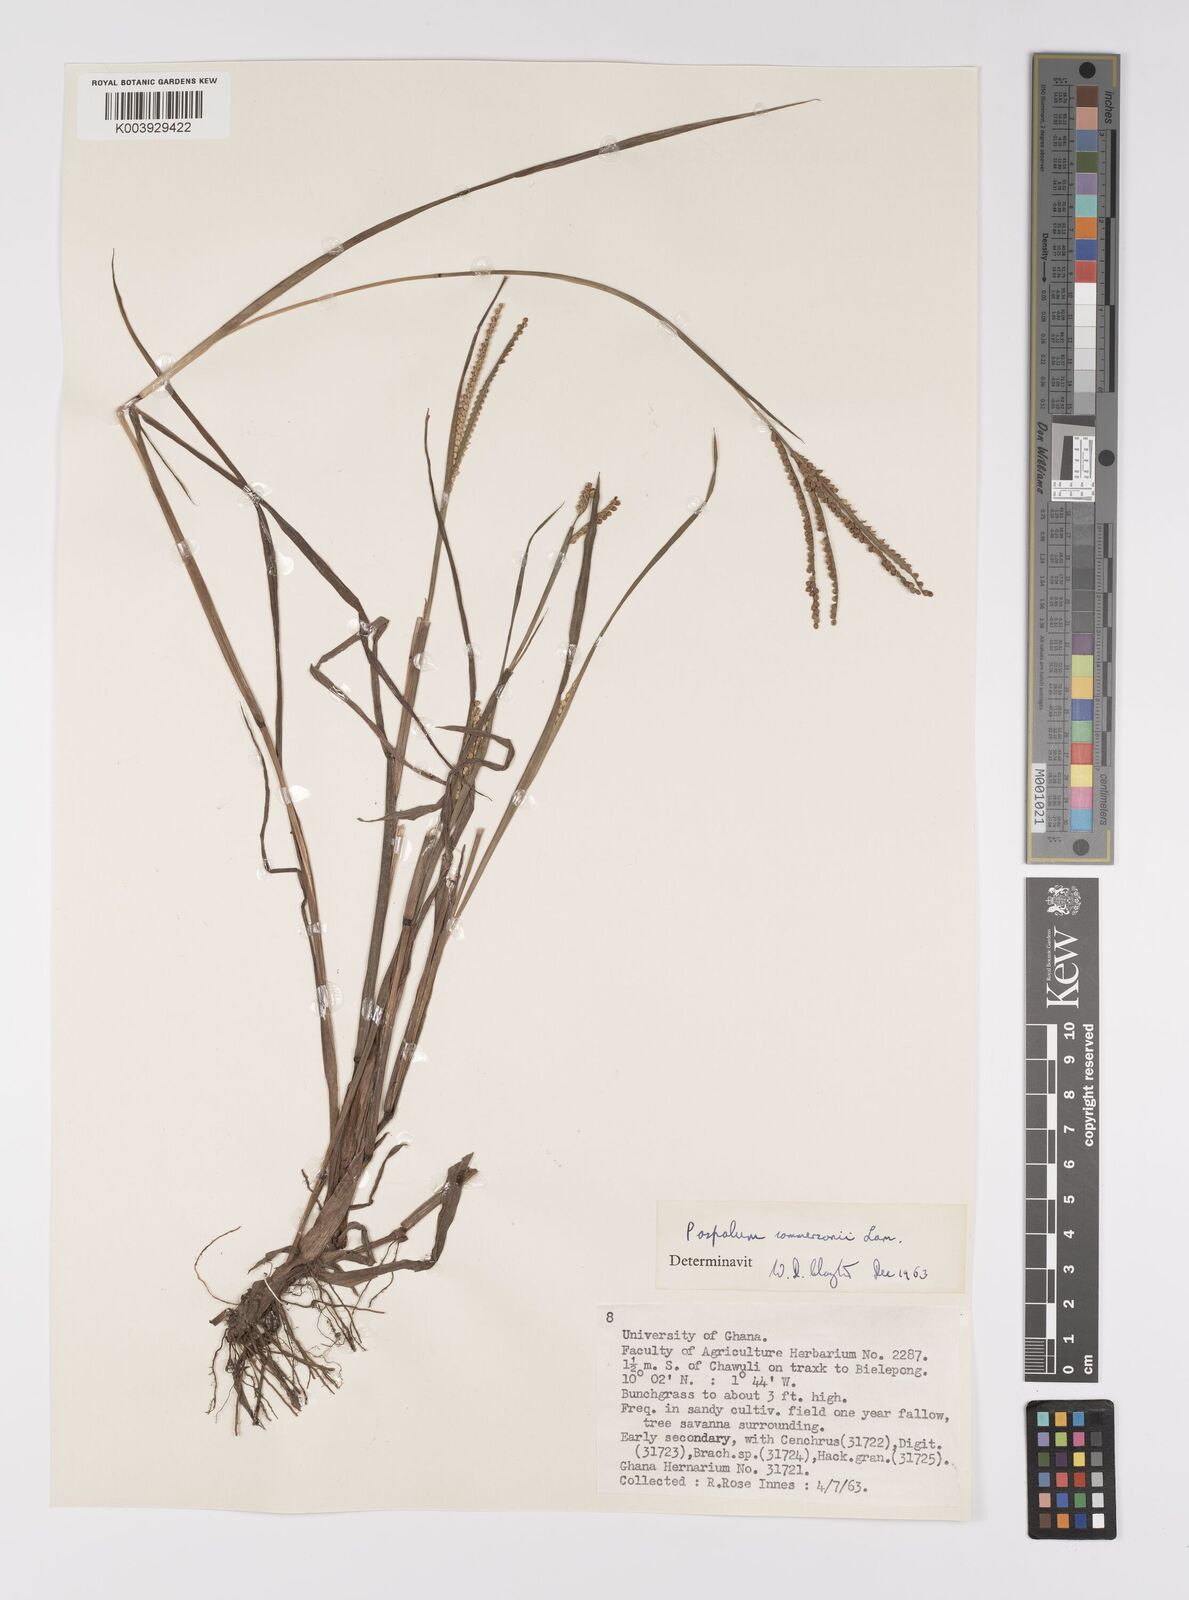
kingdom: Plantae
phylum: Tracheophyta
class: Liliopsida
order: Poales
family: Poaceae
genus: Paspalum
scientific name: Paspalum scrobiculatum
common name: Kodo millet
